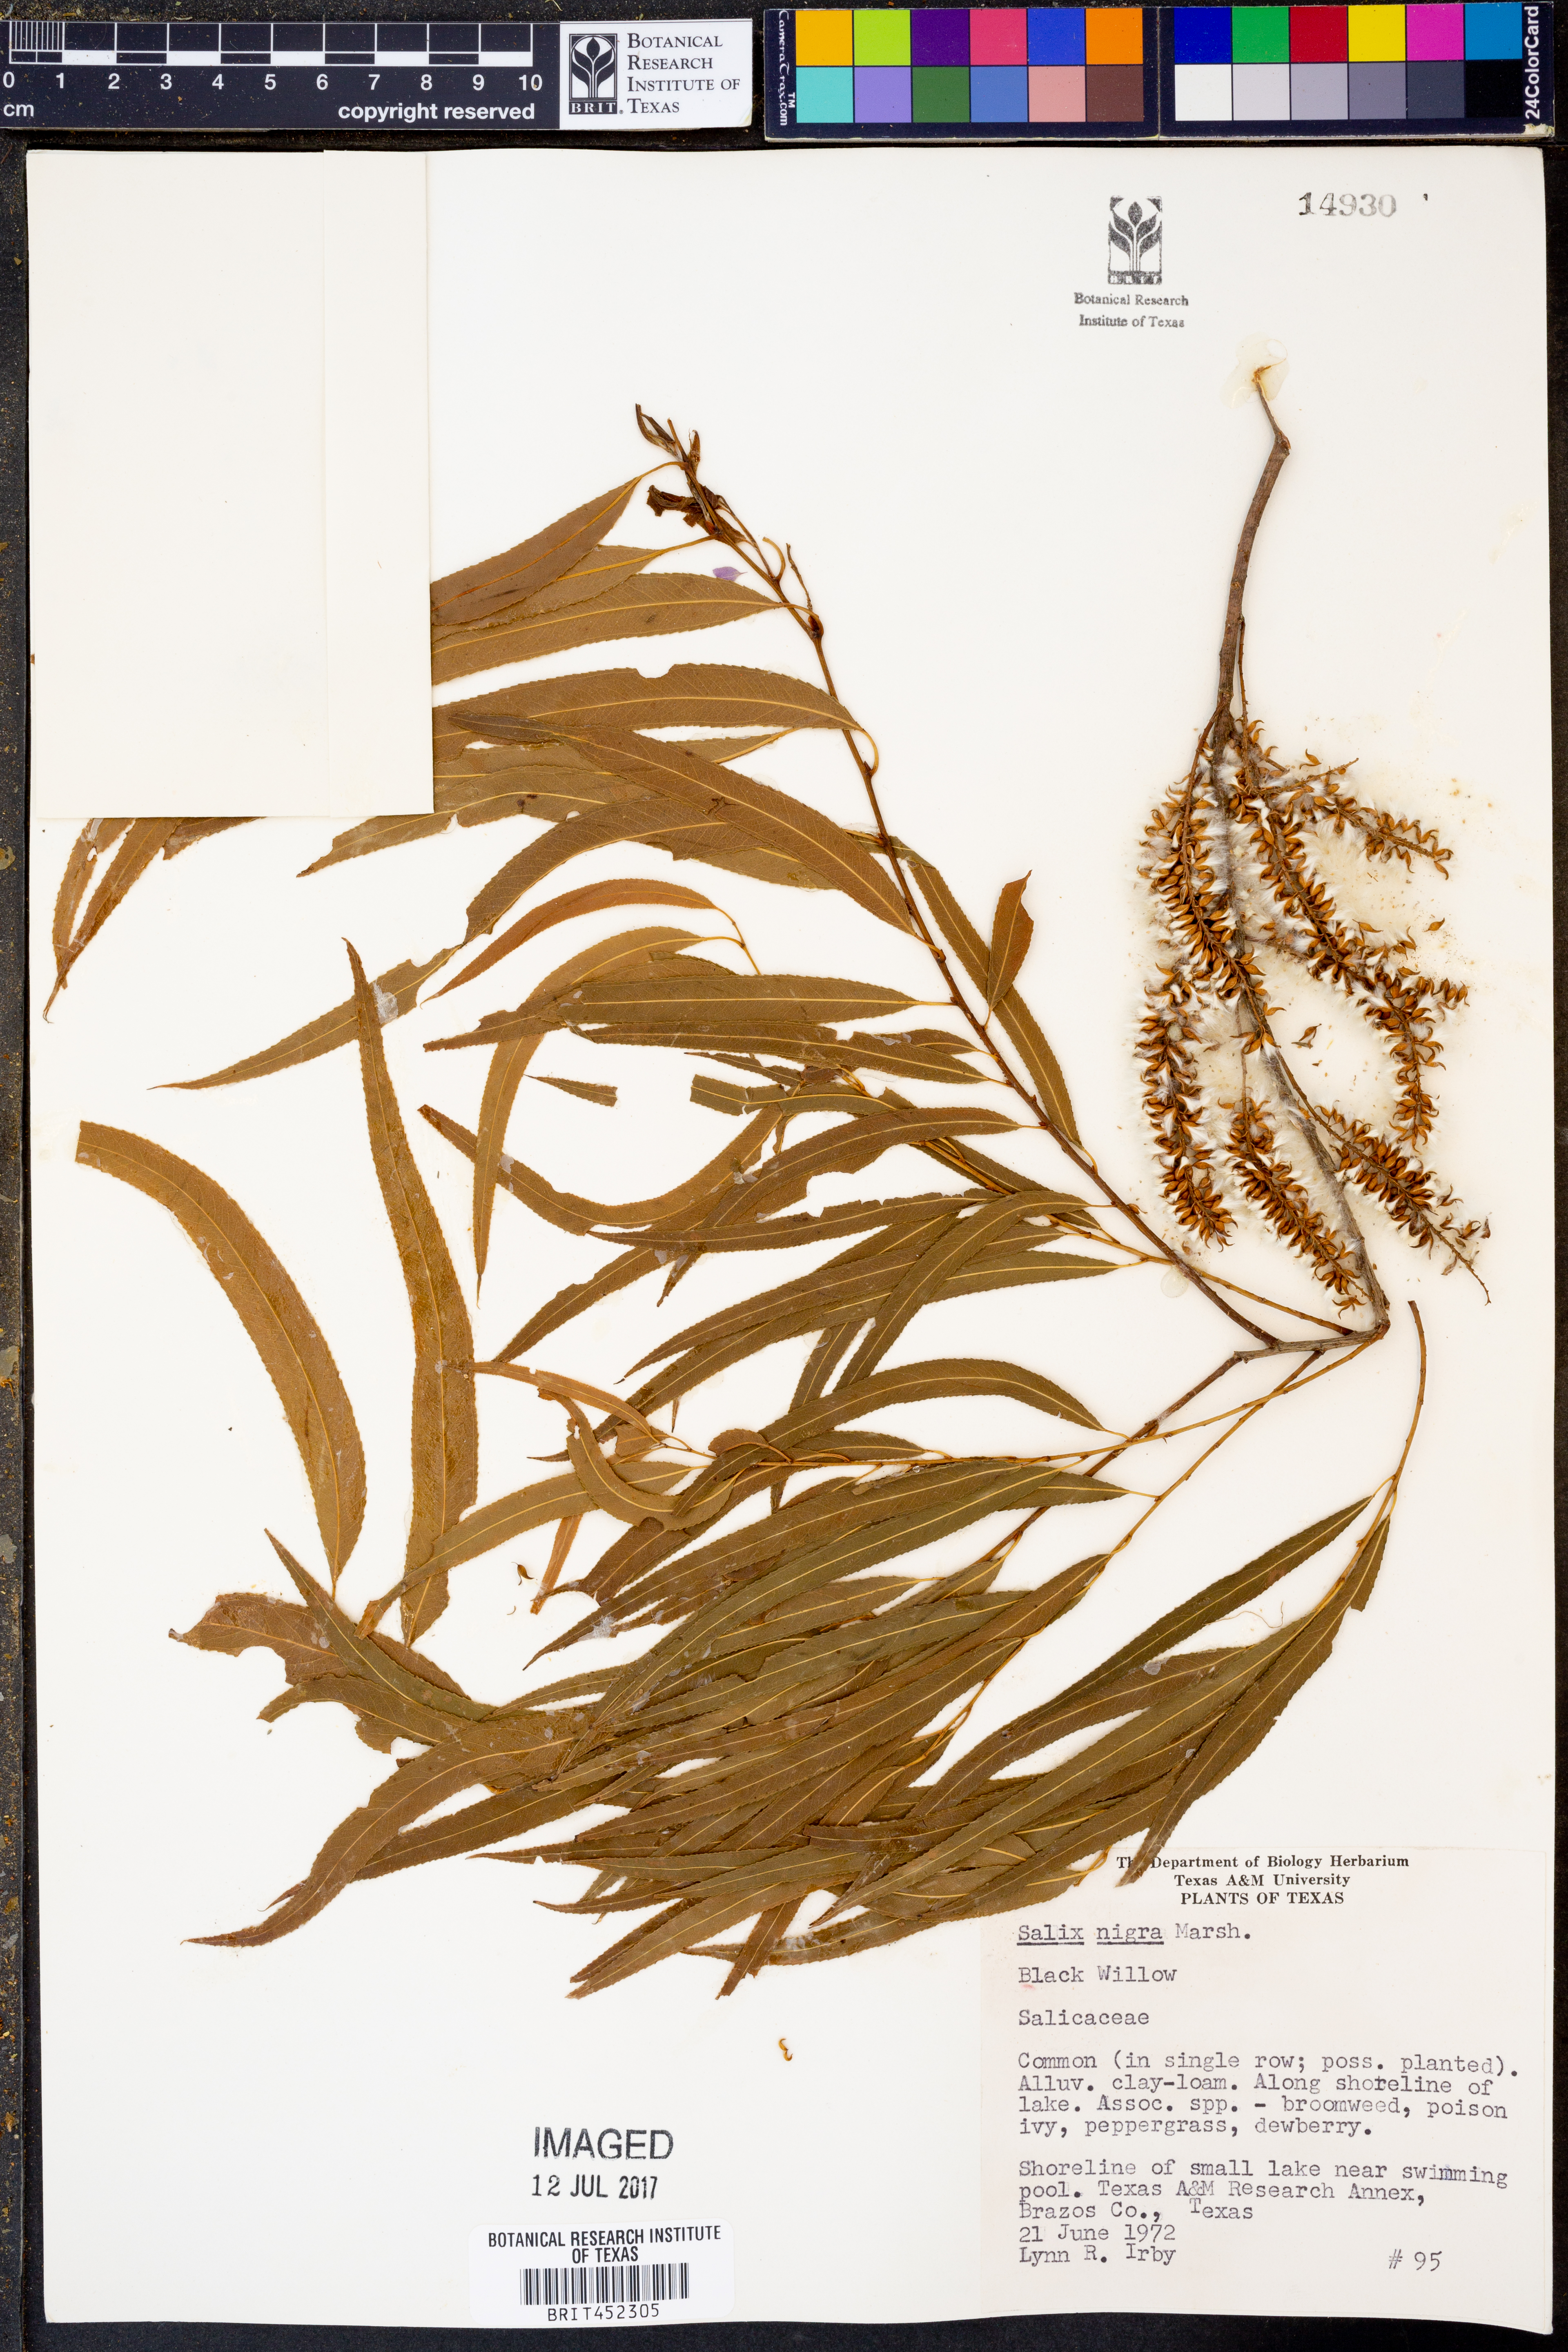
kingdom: Plantae
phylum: Tracheophyta
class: Magnoliopsida
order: Malpighiales
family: Salicaceae
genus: Salix
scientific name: Salix nigra
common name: Black willow
